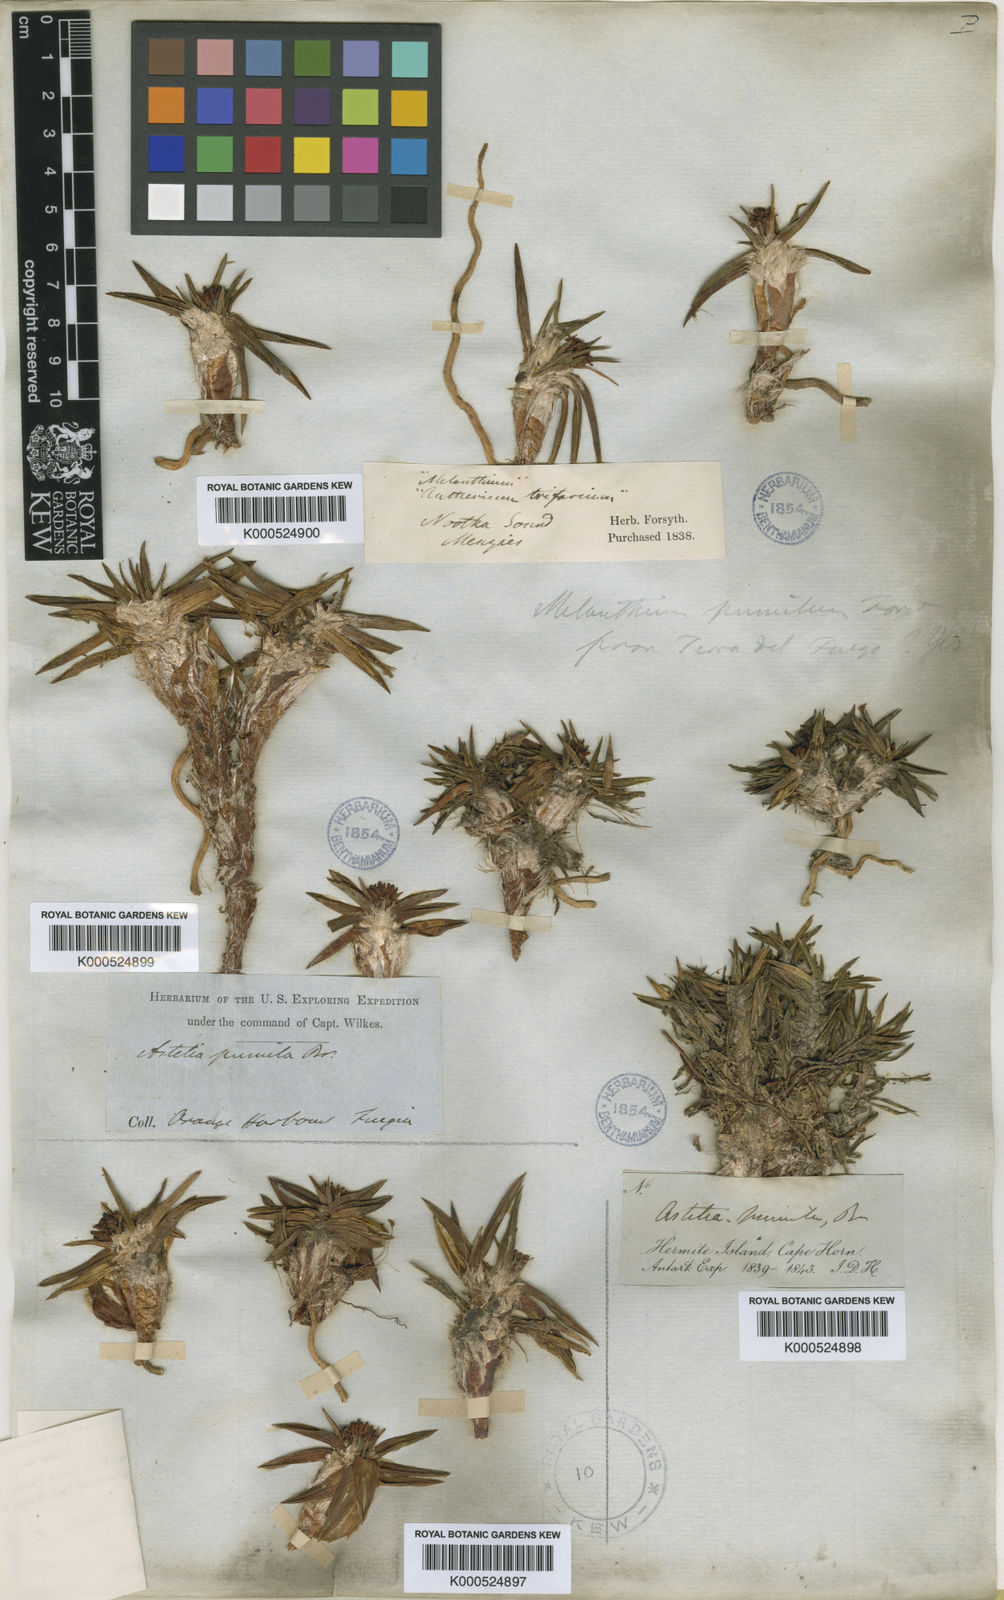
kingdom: Plantae
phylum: Tracheophyta
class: Liliopsida
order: Asparagales
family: Asteliaceae
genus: Astelia
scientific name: Astelia hastata
